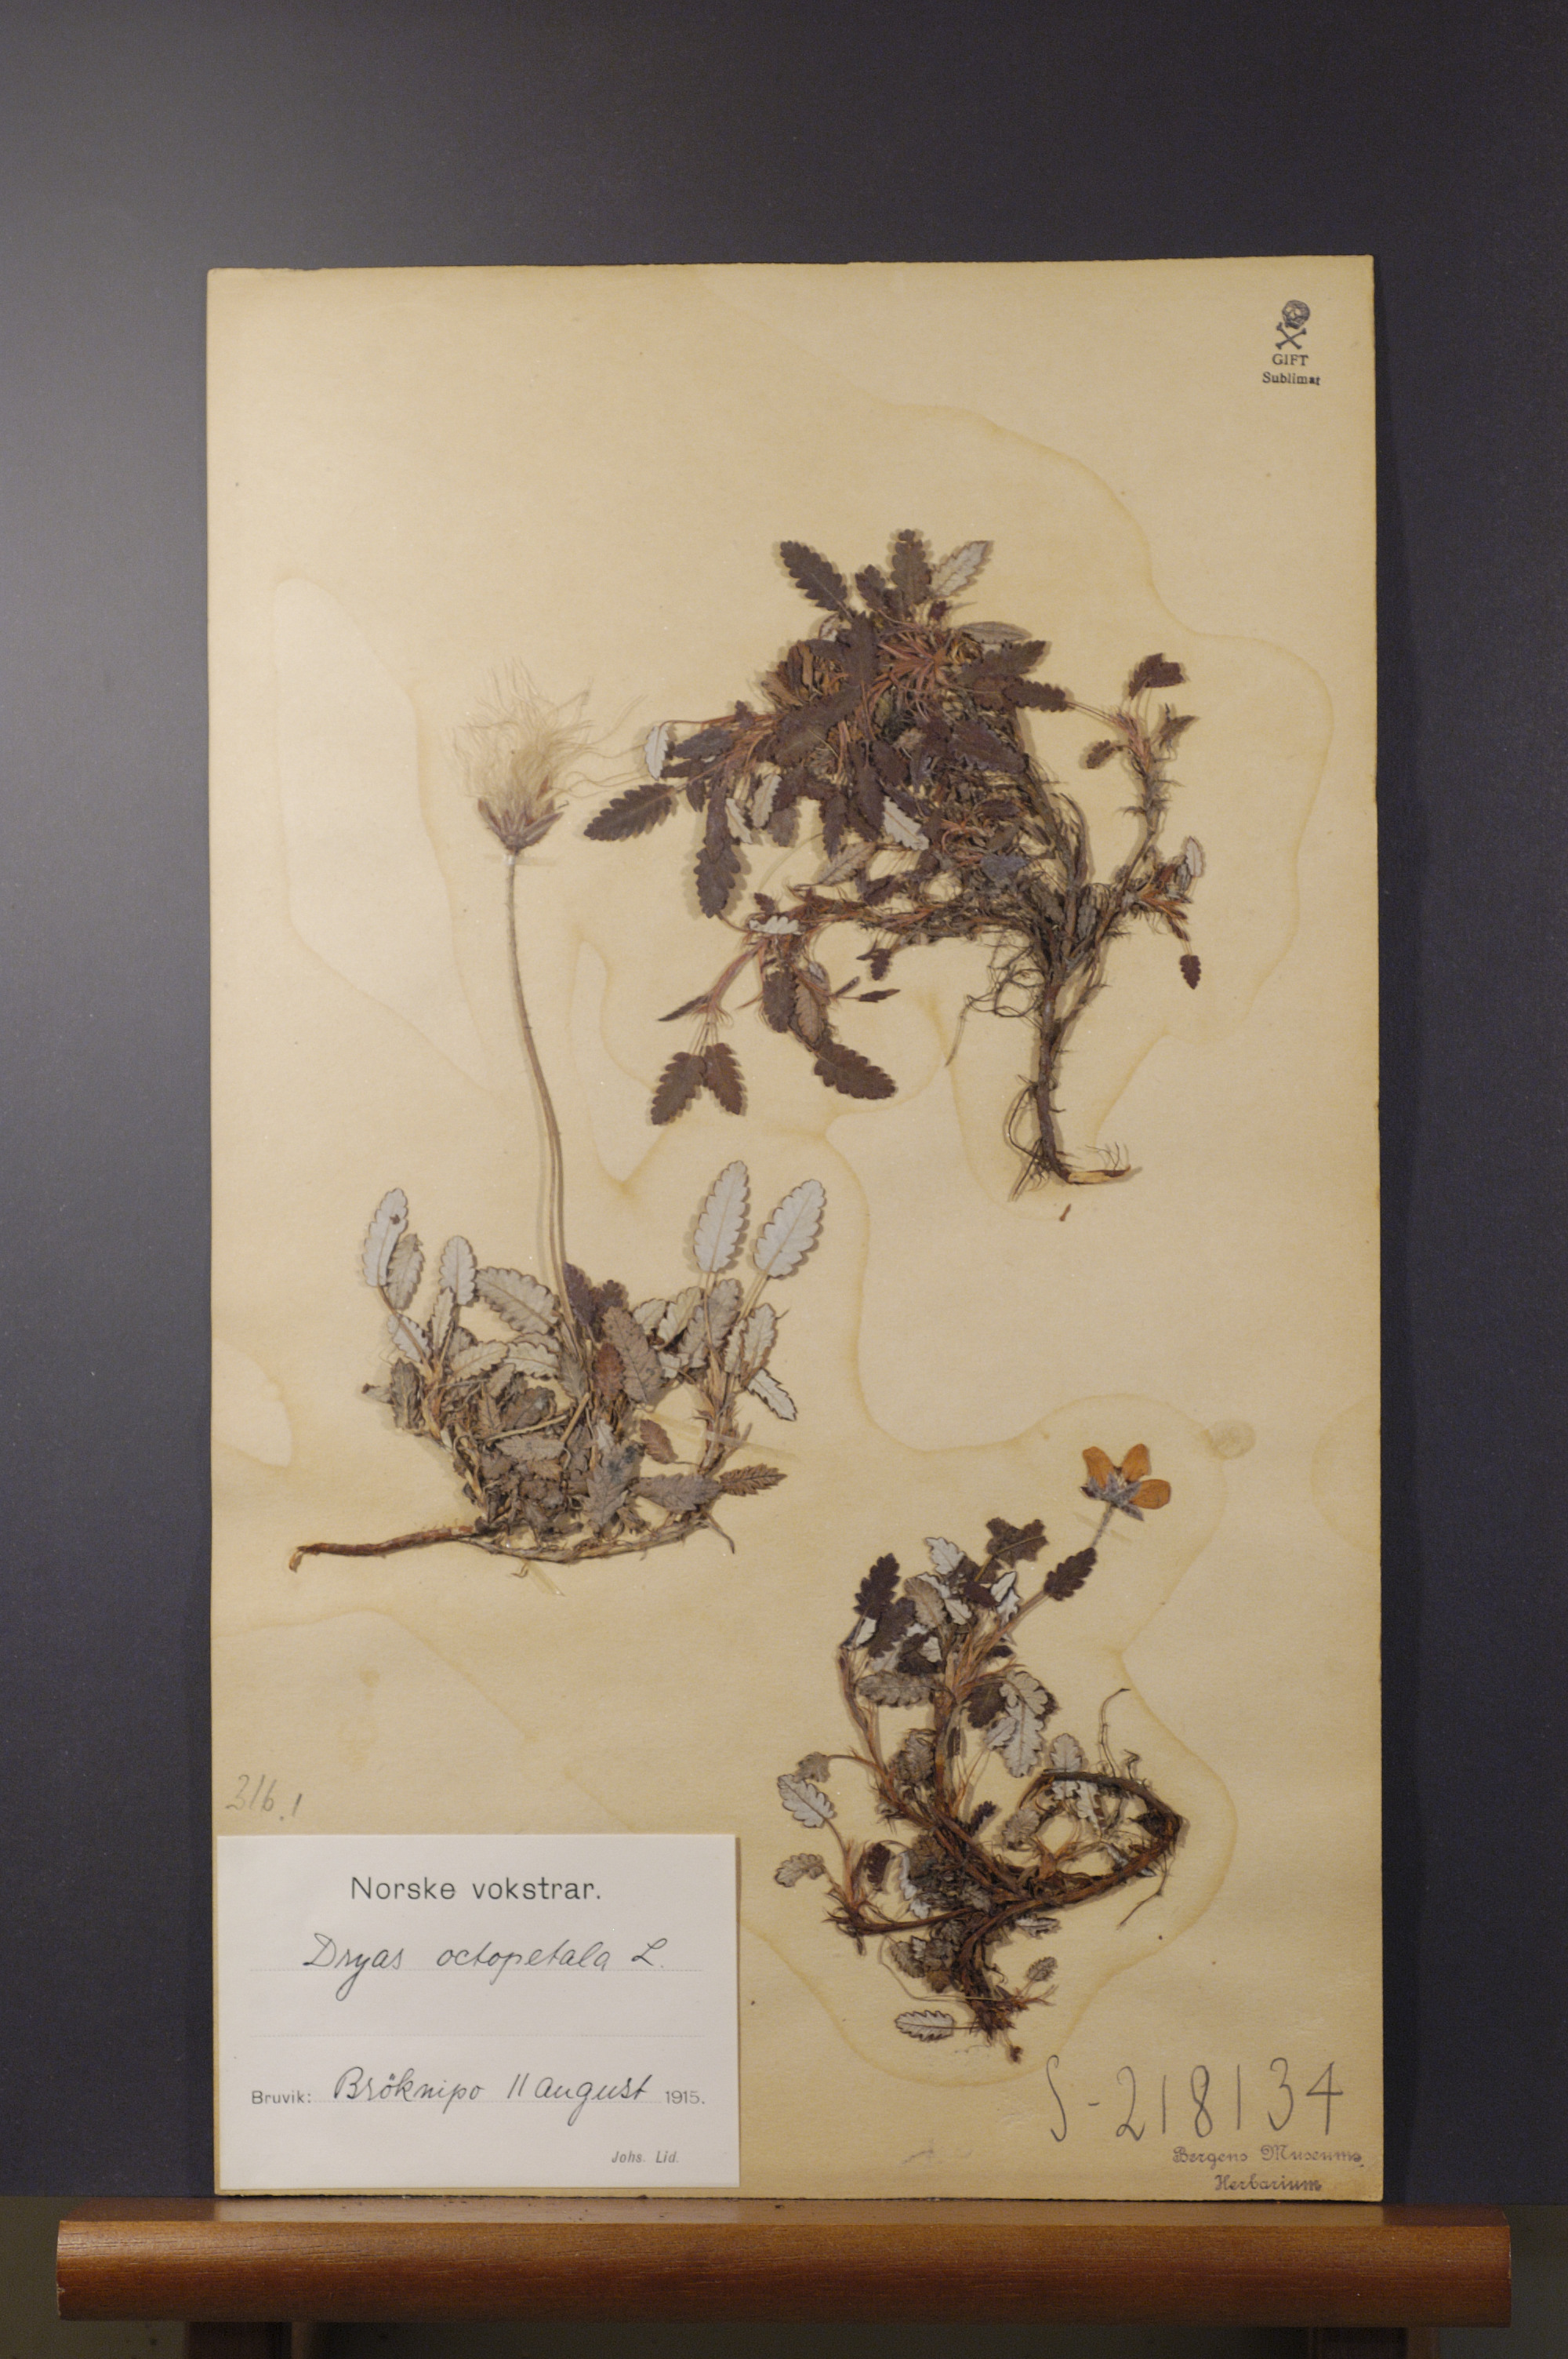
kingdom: Plantae
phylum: Tracheophyta
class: Magnoliopsida
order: Rosales
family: Rosaceae
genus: Dryas
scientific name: Dryas octopetala
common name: Eight-petal mountain-avens
